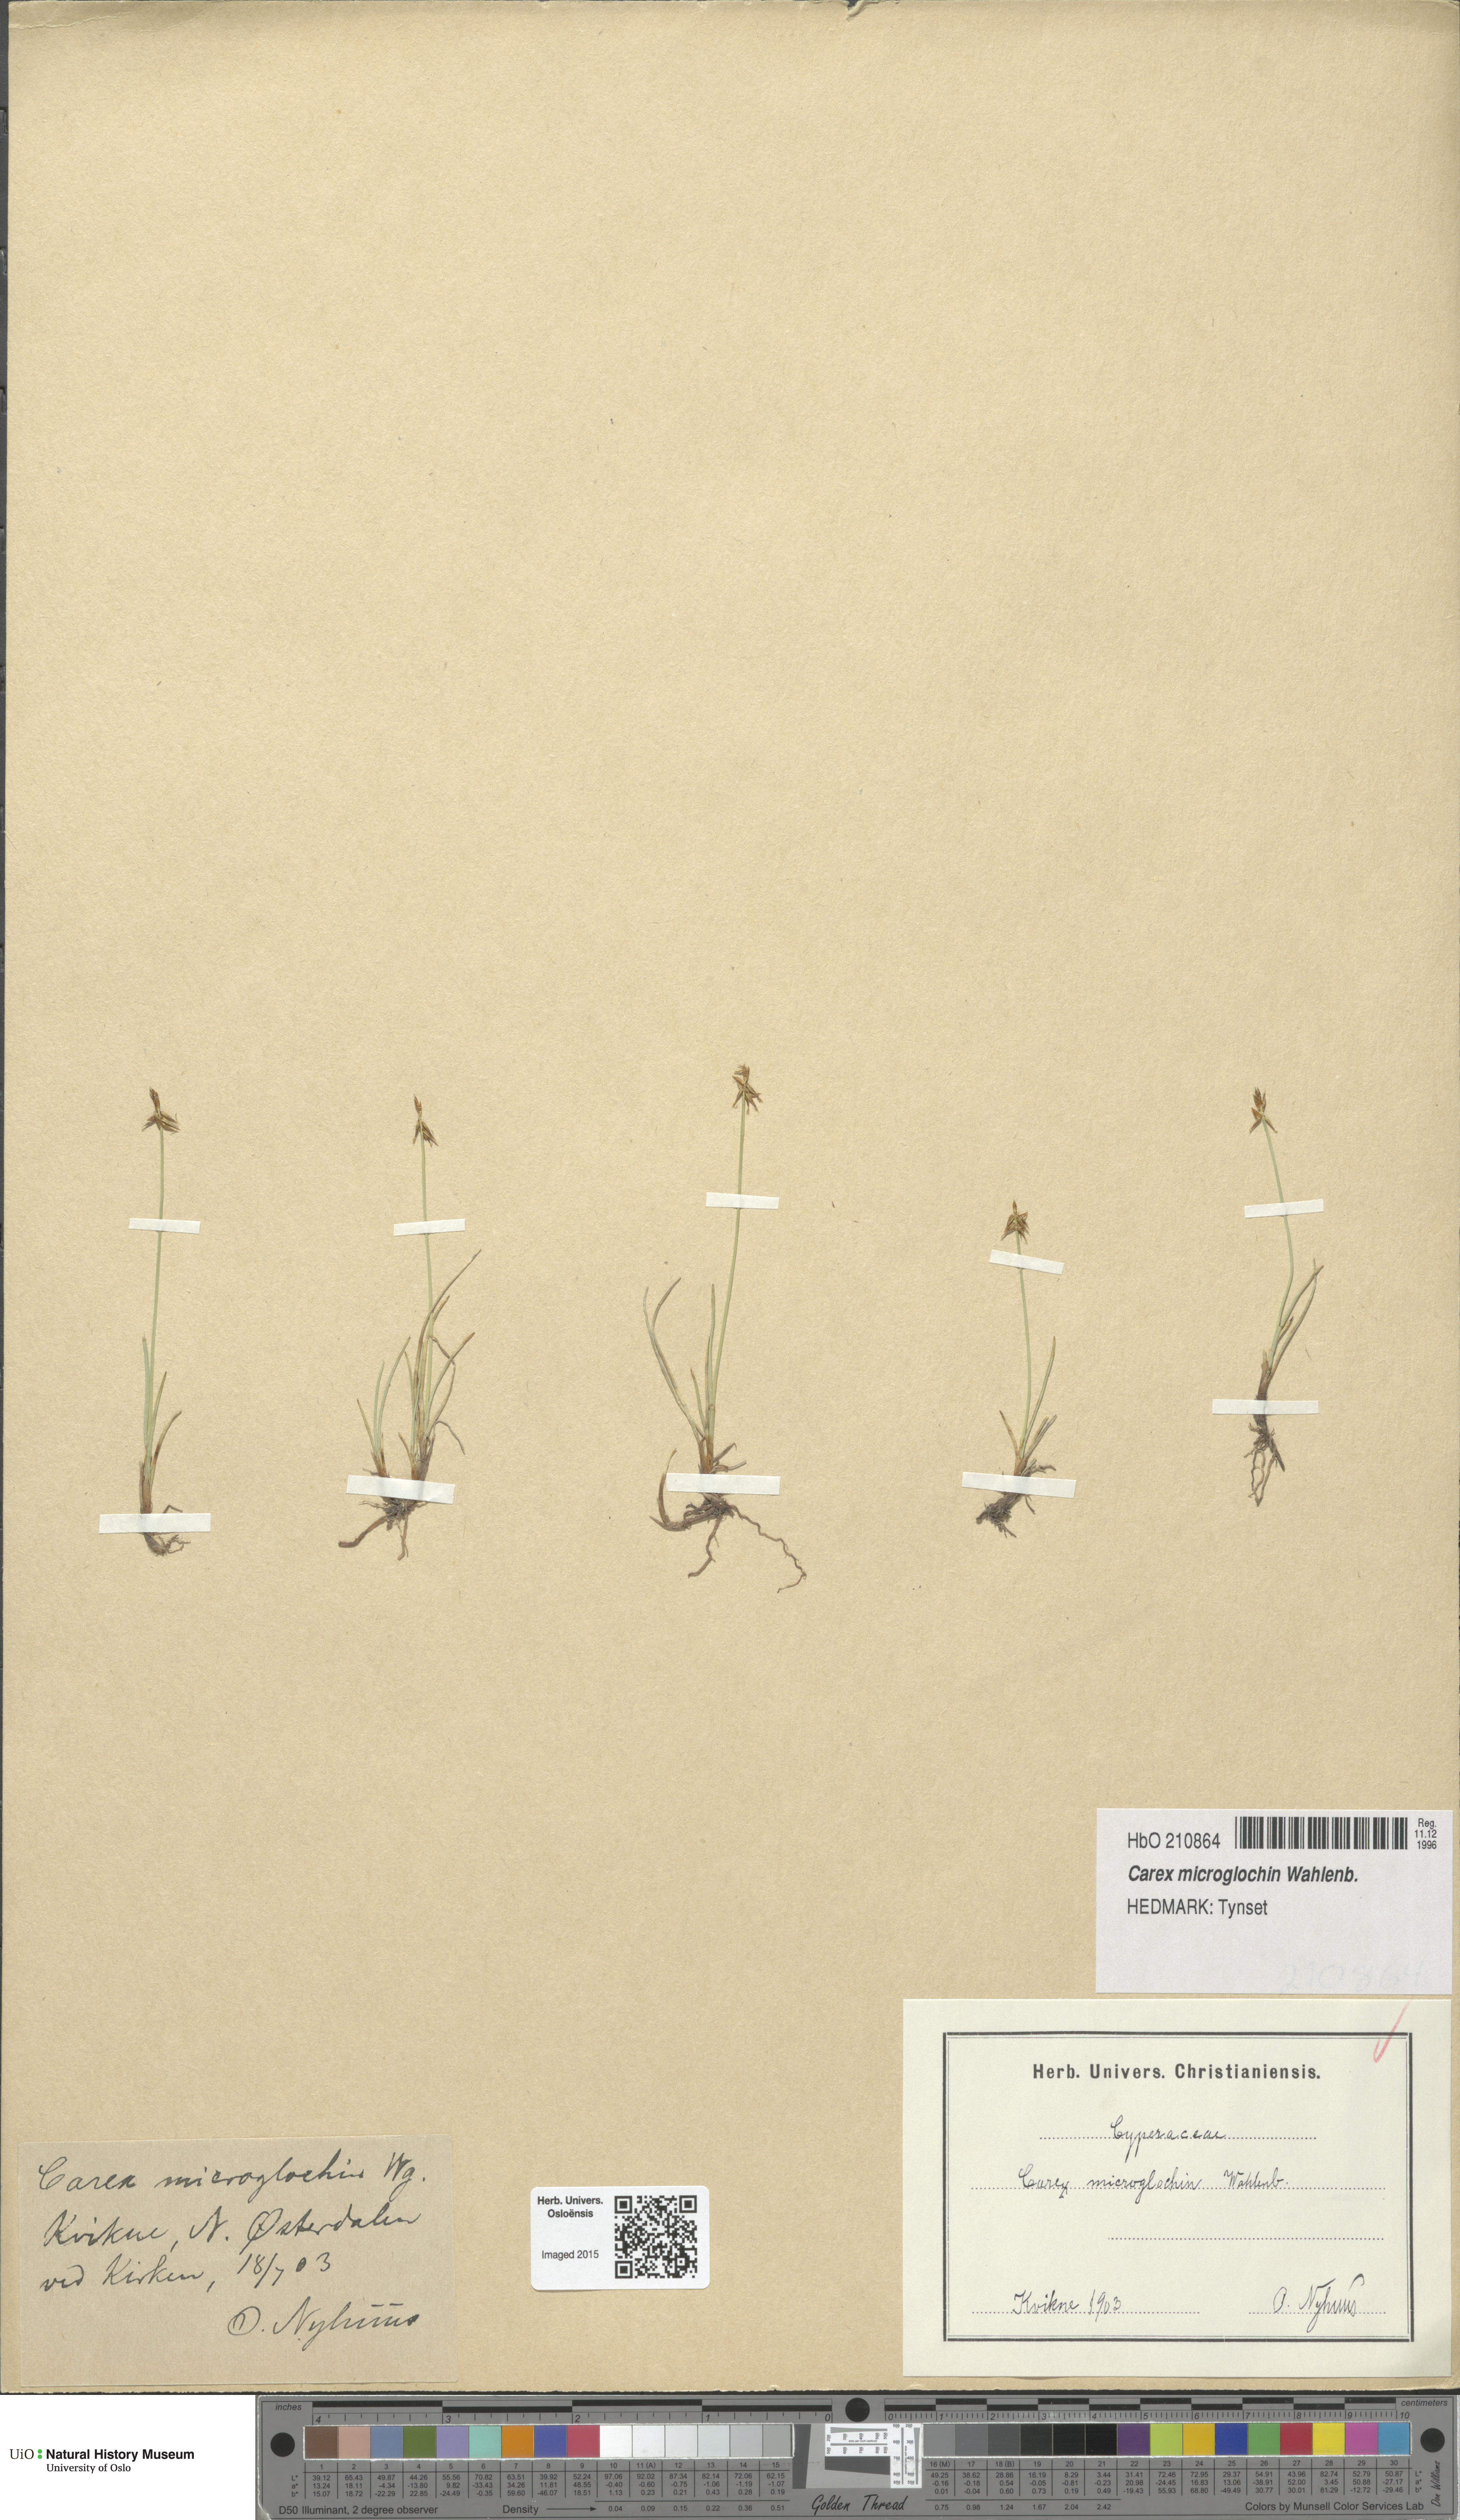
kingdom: Plantae
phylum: Tracheophyta
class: Liliopsida
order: Poales
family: Cyperaceae
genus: Carex
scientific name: Carex microglochin
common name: Bristle sedge
